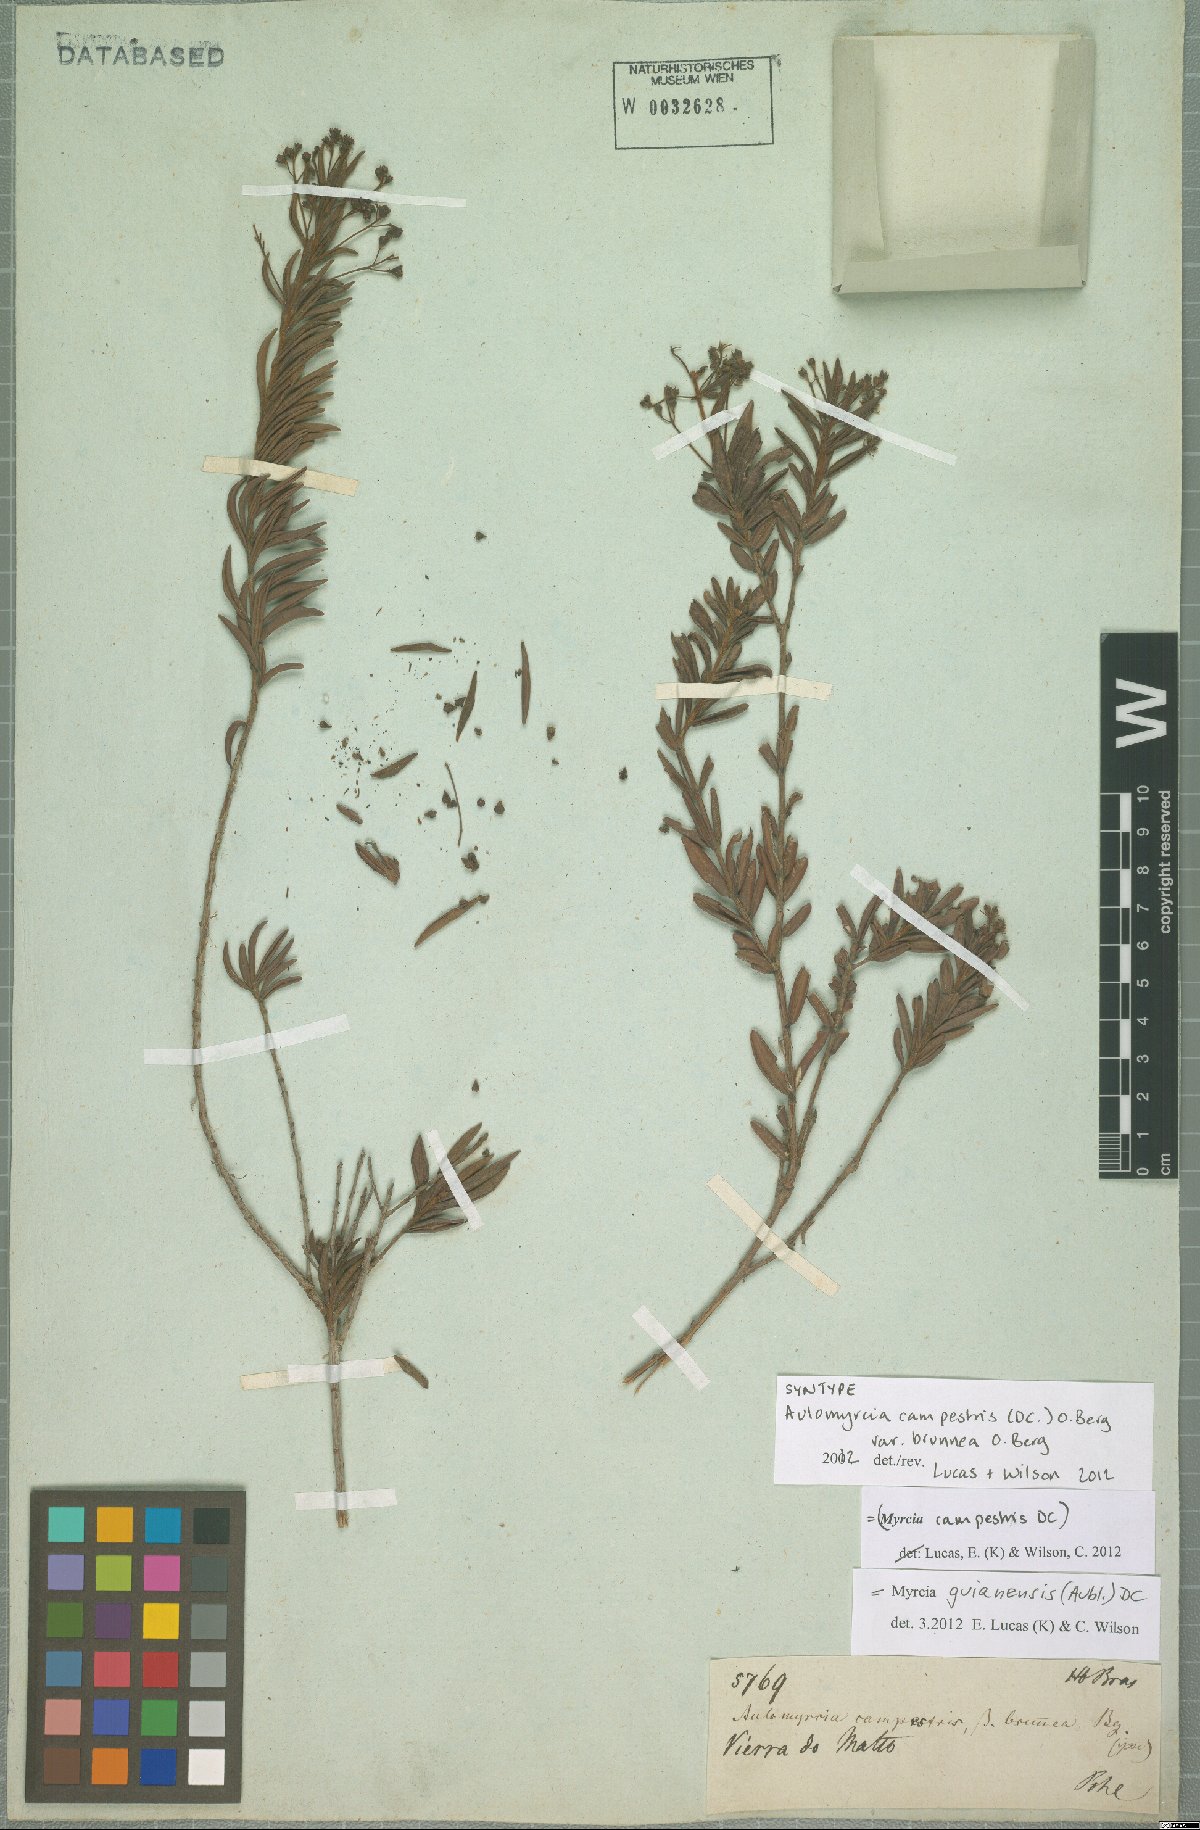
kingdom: Plantae
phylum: Tracheophyta
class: Magnoliopsida
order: Myrtales
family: Myrtaceae
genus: Myrcia
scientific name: Myrcia guianensis
